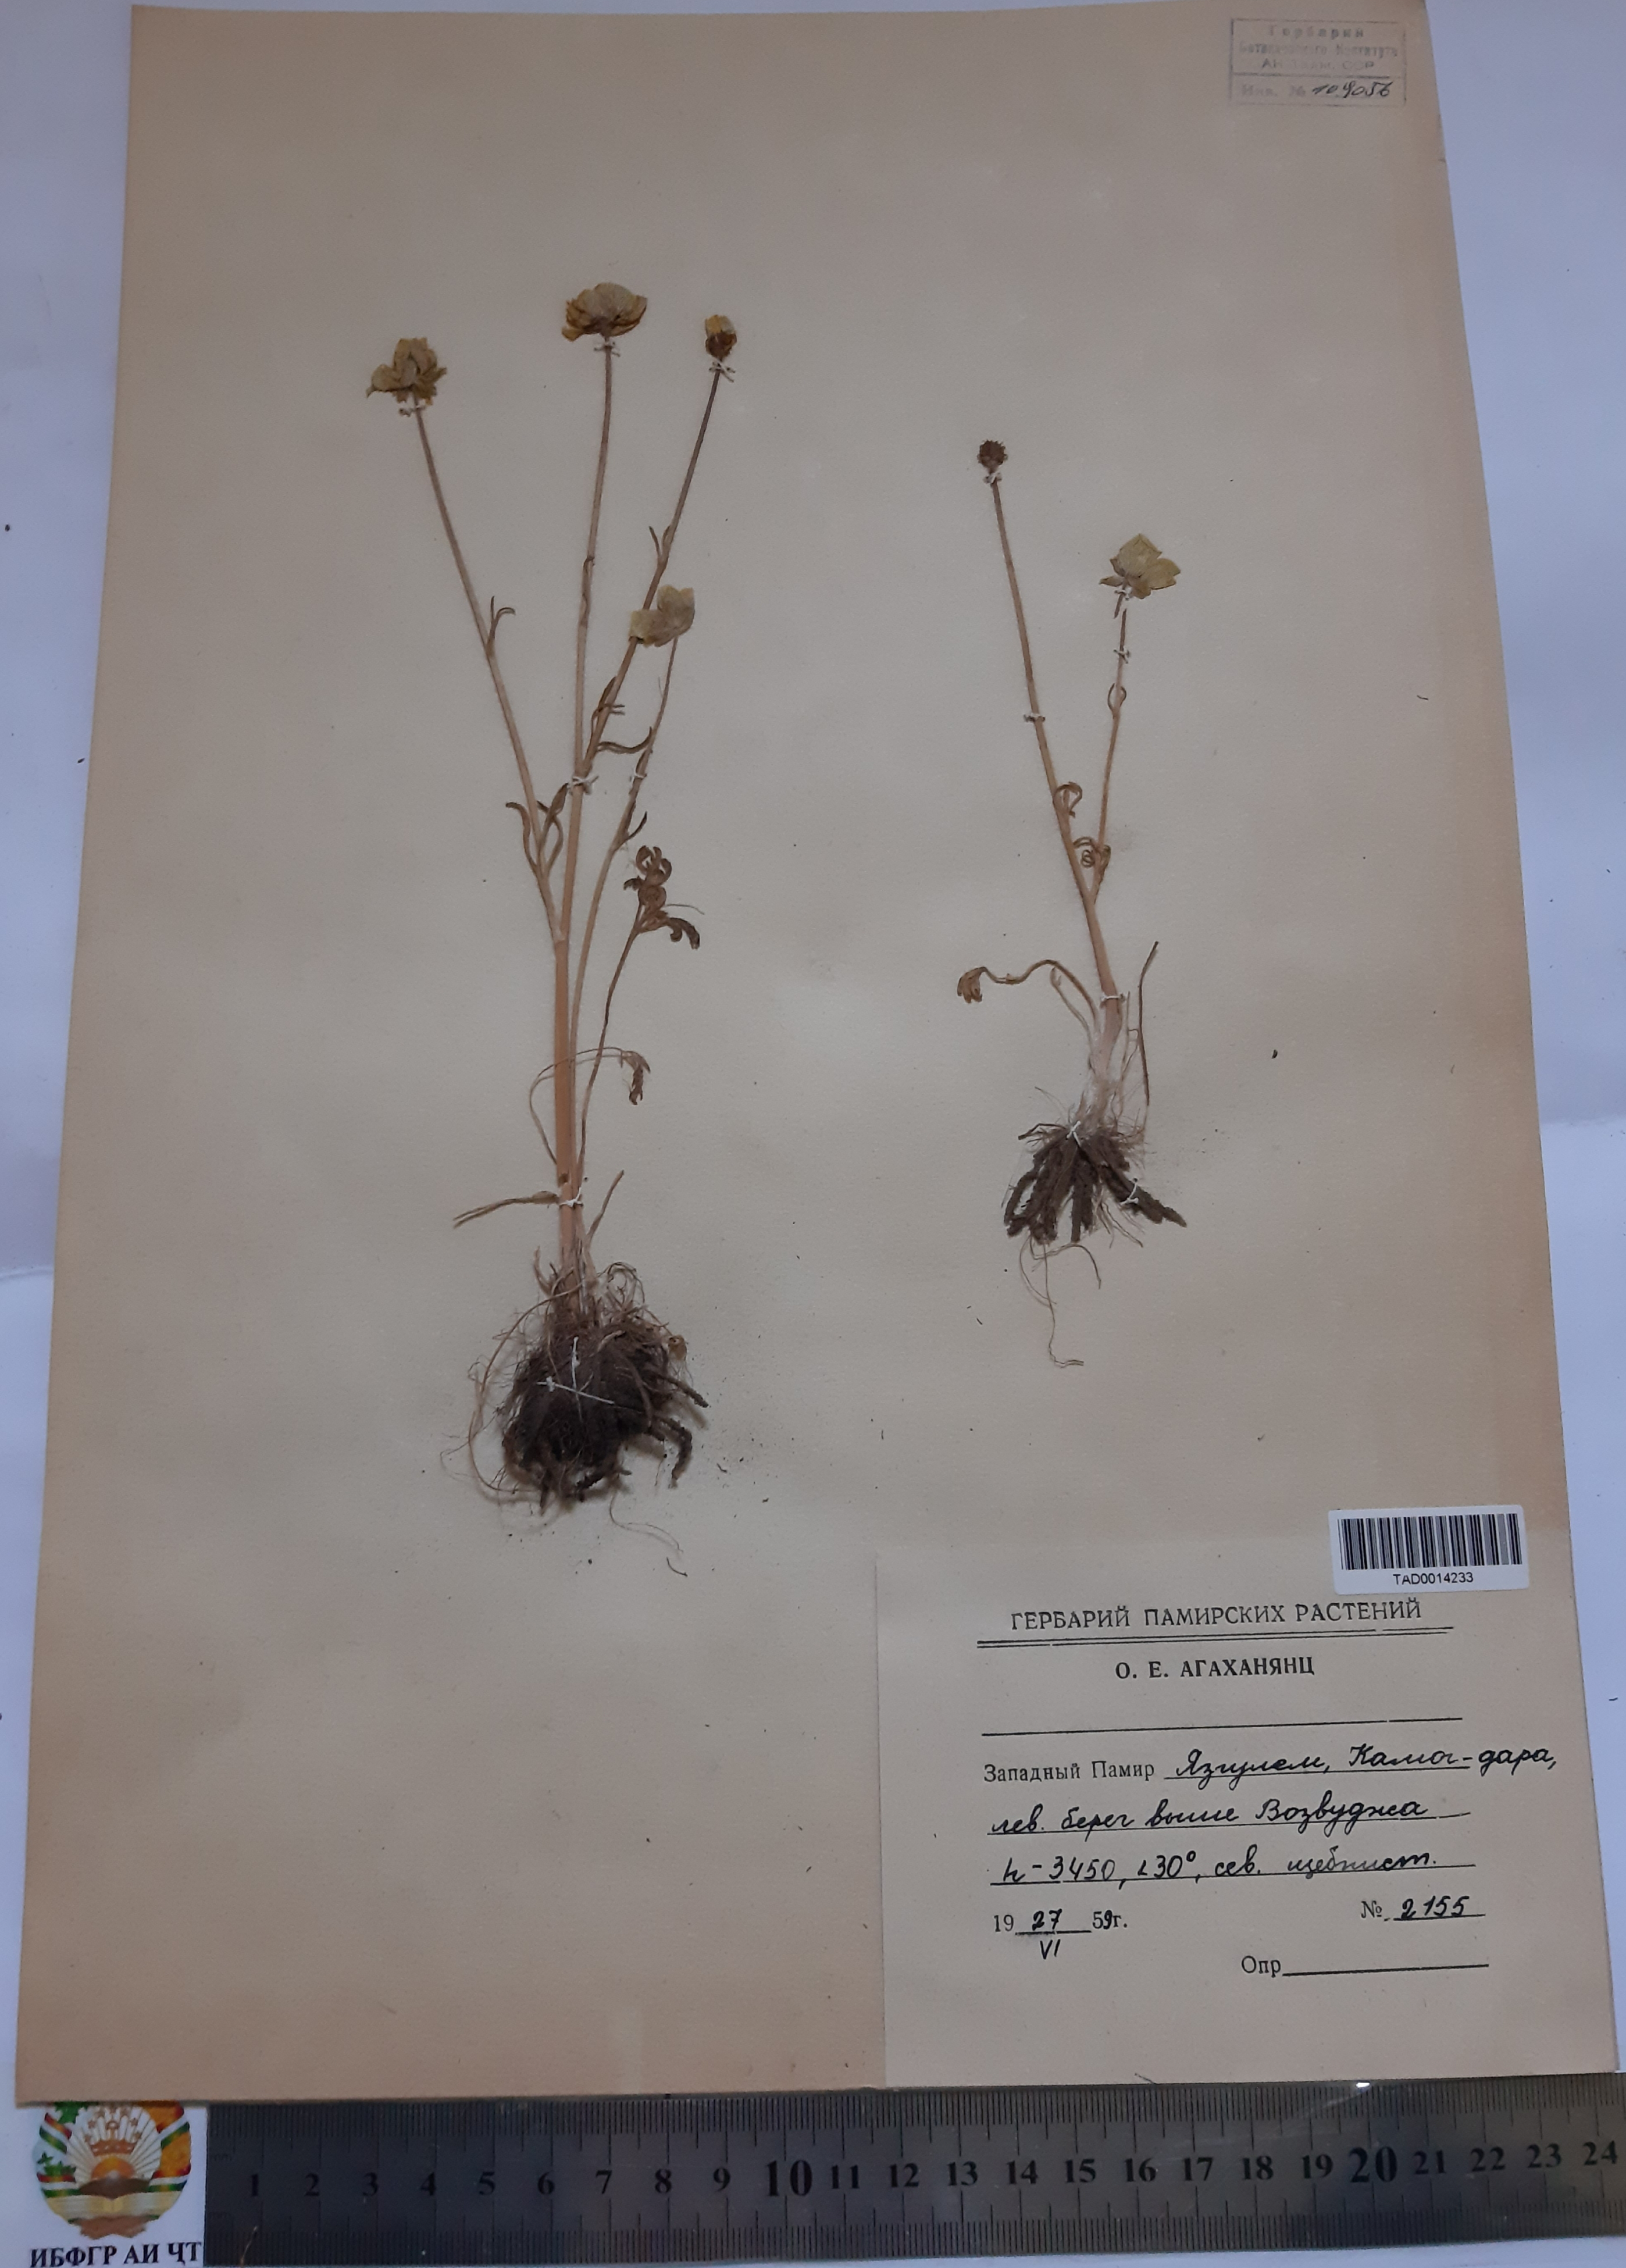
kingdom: Plantae
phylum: Tracheophyta
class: Magnoliopsida
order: Ranunculales
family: Ranunculaceae
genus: Ranunculus
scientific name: Ranunculus badachschanicus
